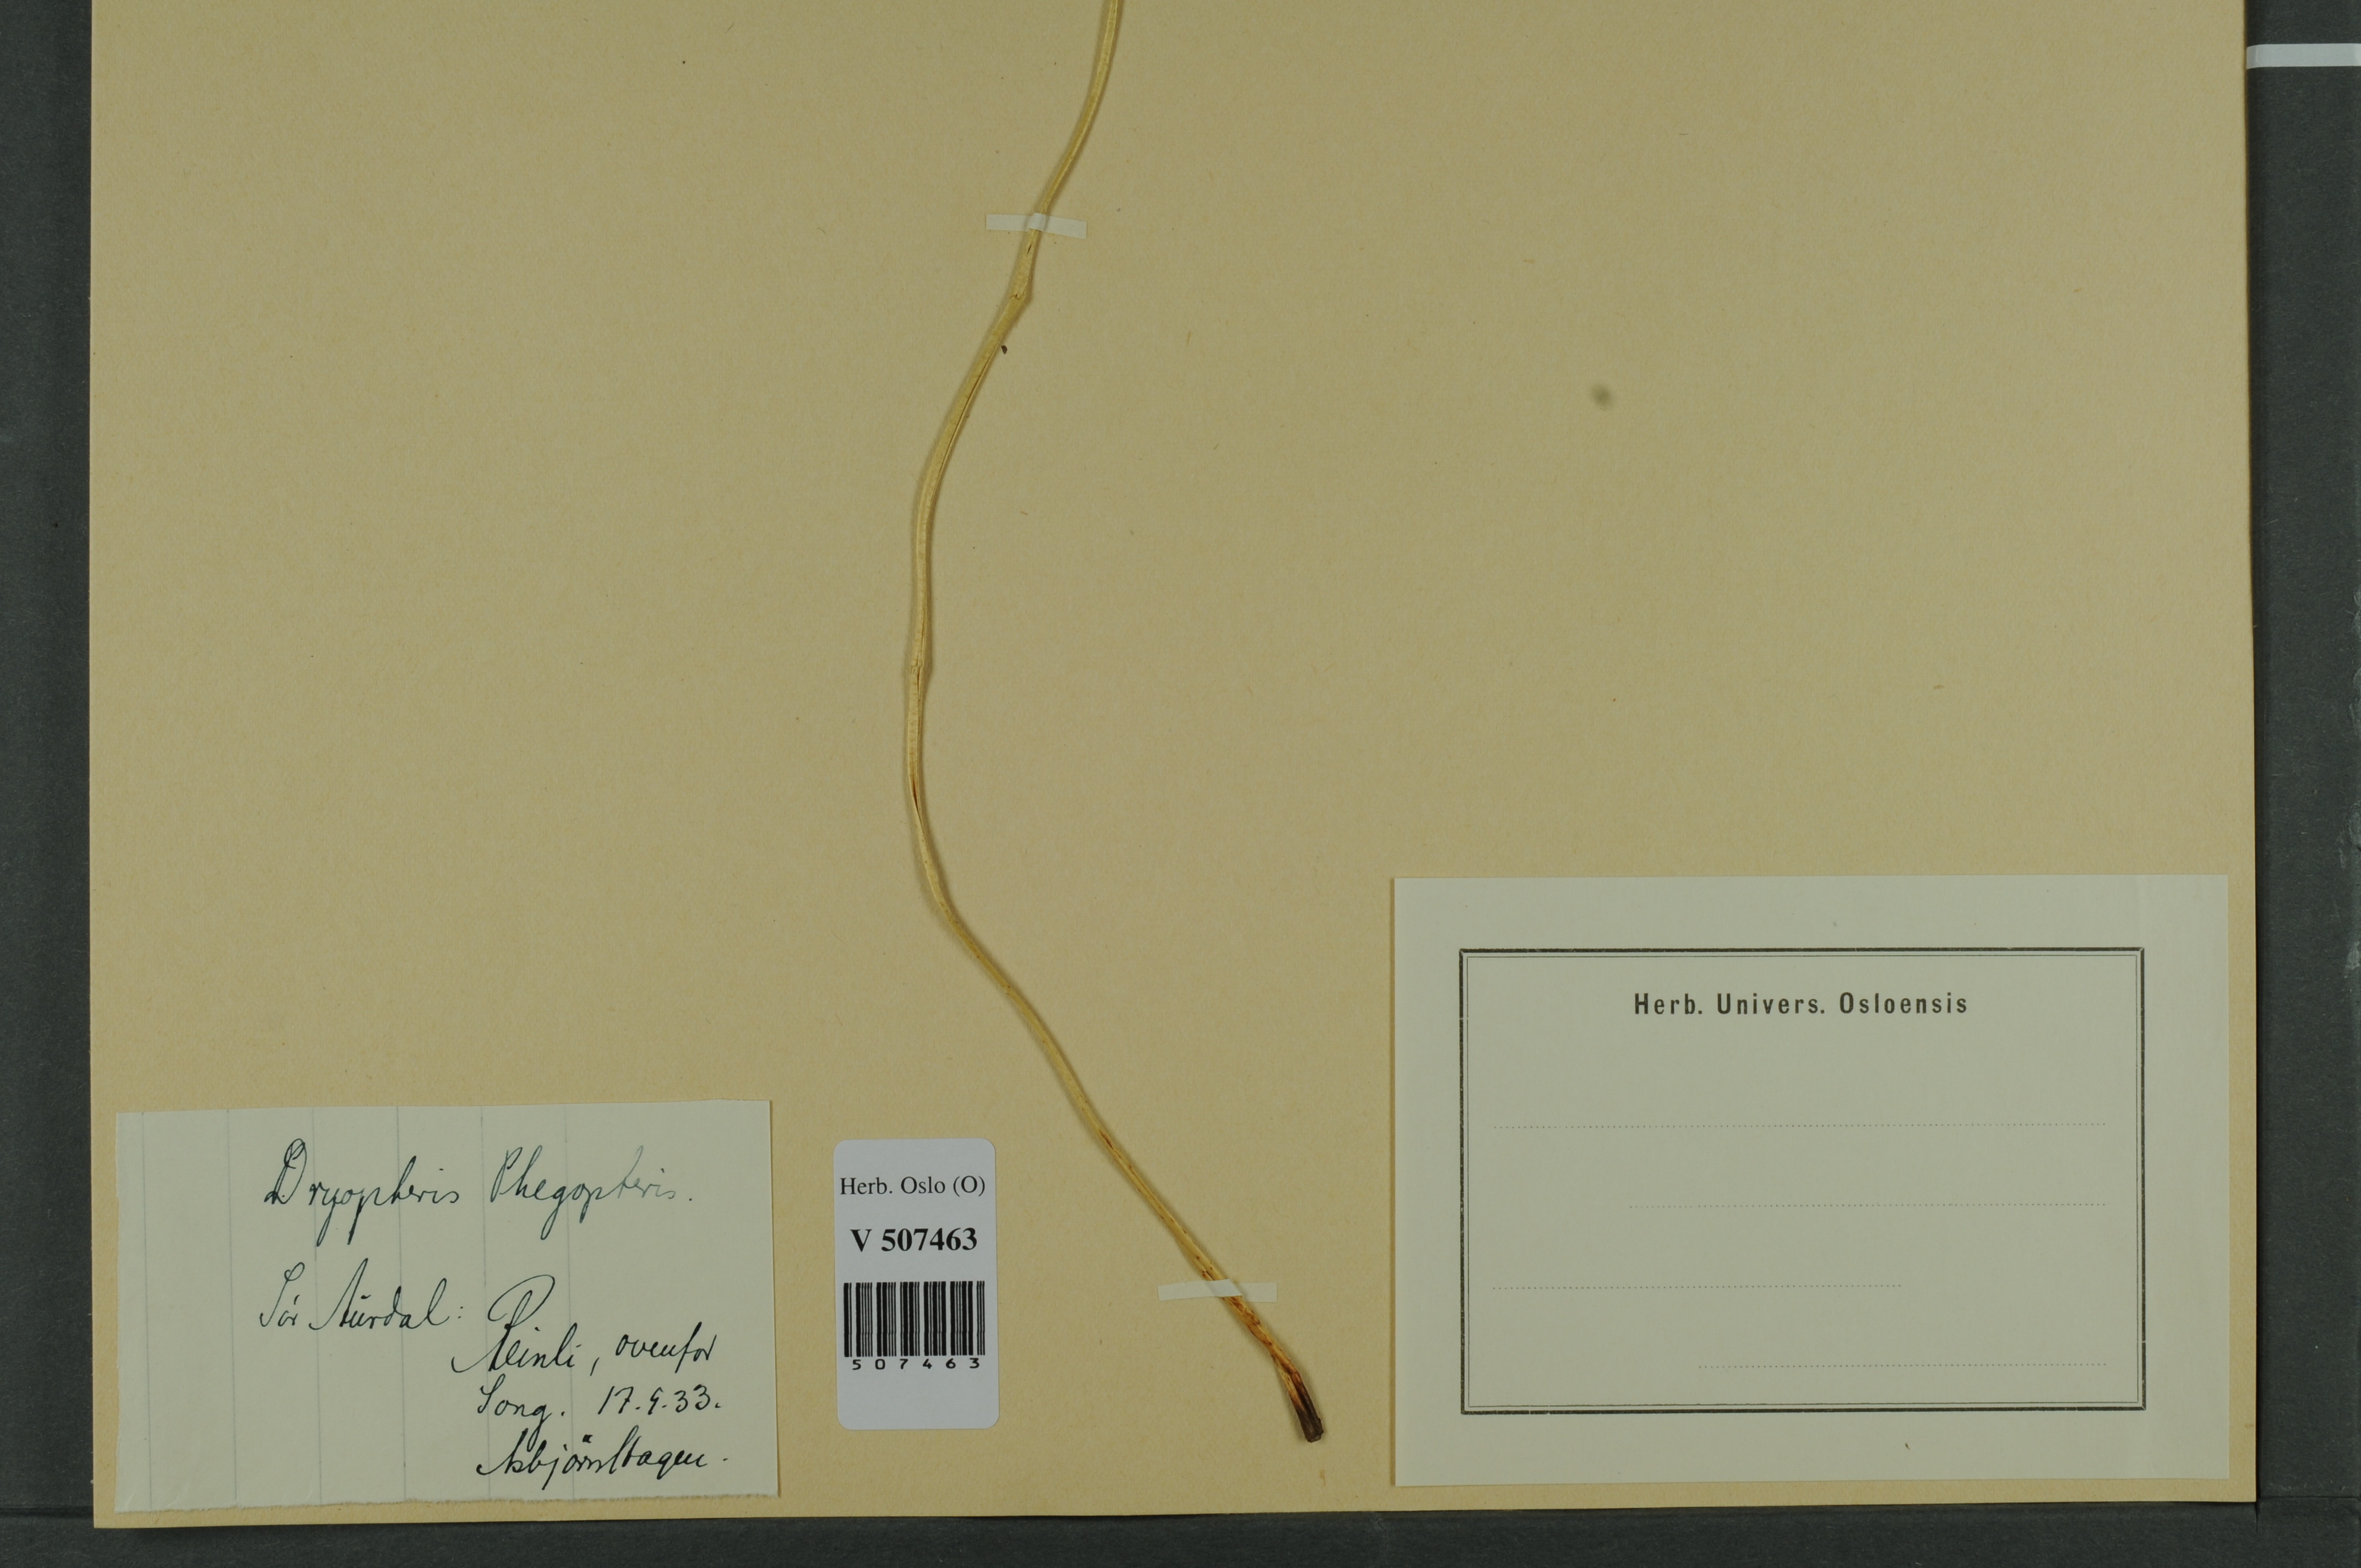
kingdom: Plantae
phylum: Tracheophyta
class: Polypodiopsida
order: Polypodiales
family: Thelypteridaceae
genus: Phegopteris
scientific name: Phegopteris connectilis
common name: Beech fern
